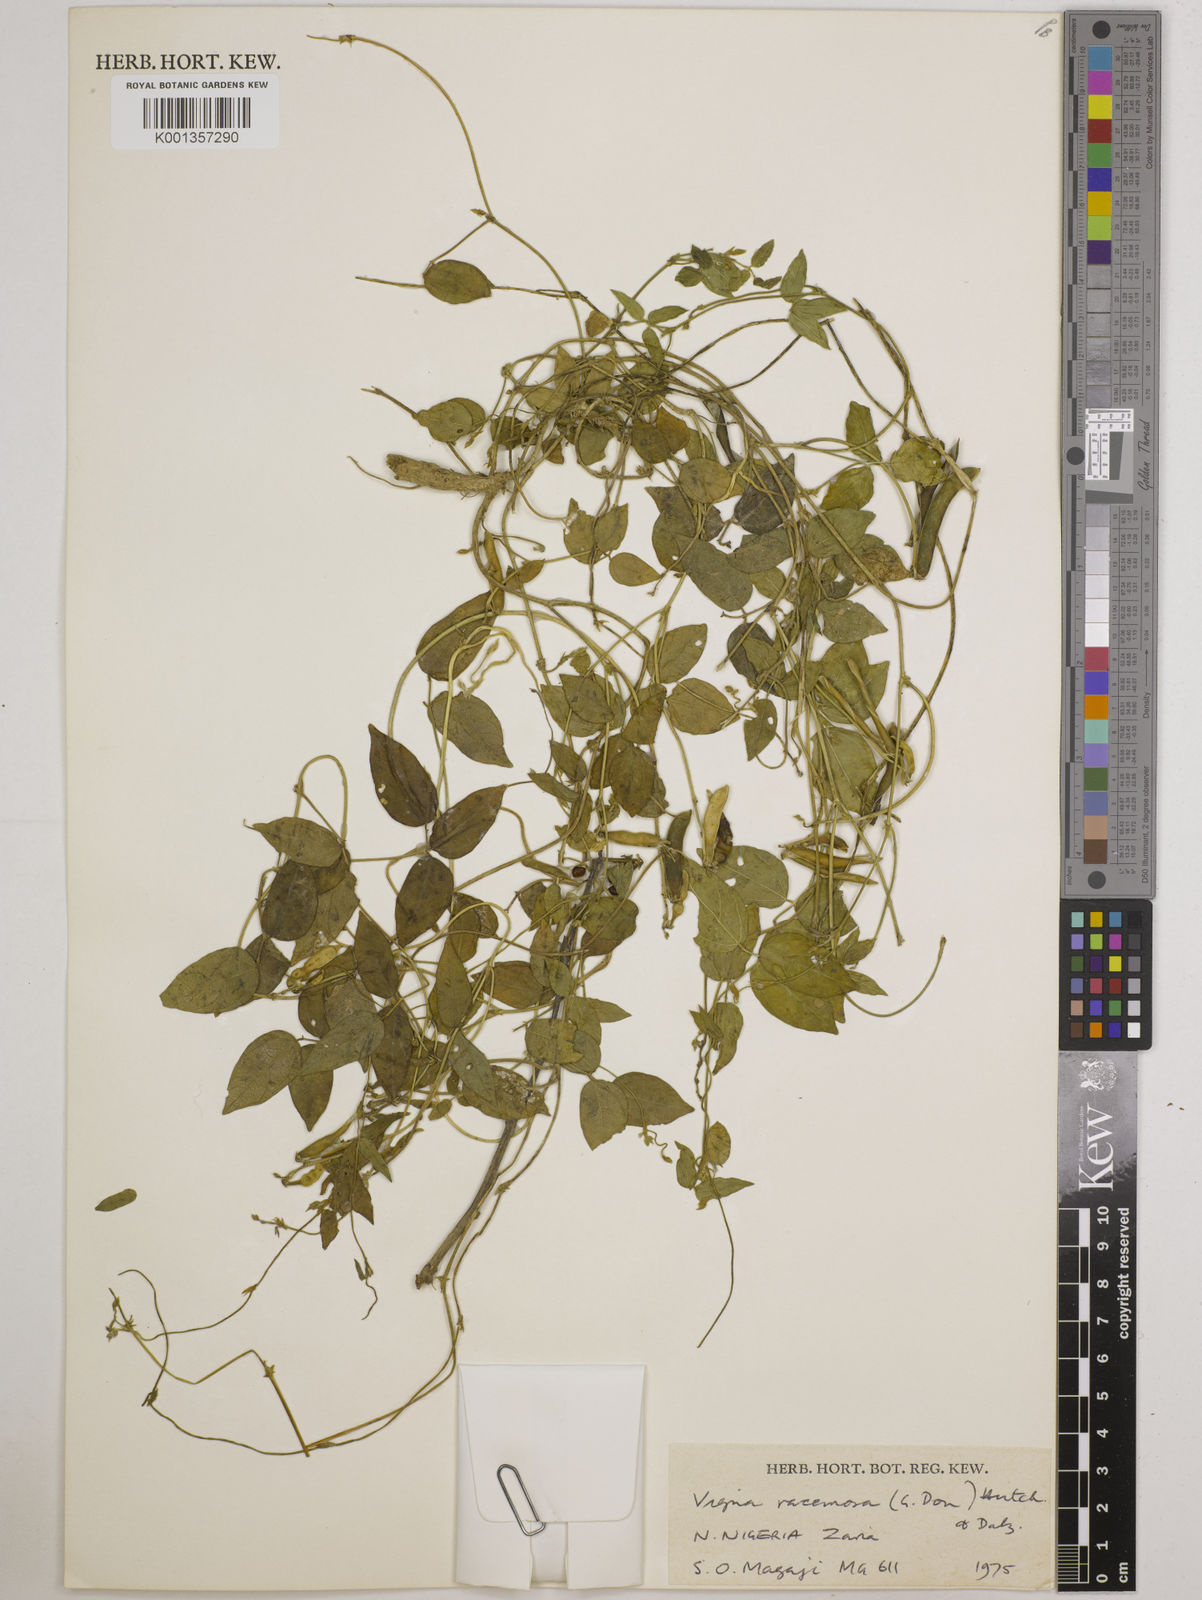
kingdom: Plantae
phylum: Tracheophyta
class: Magnoliopsida
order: Fabales
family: Fabaceae
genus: Vigna
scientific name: Vigna racemosa
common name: Beans not eaten
